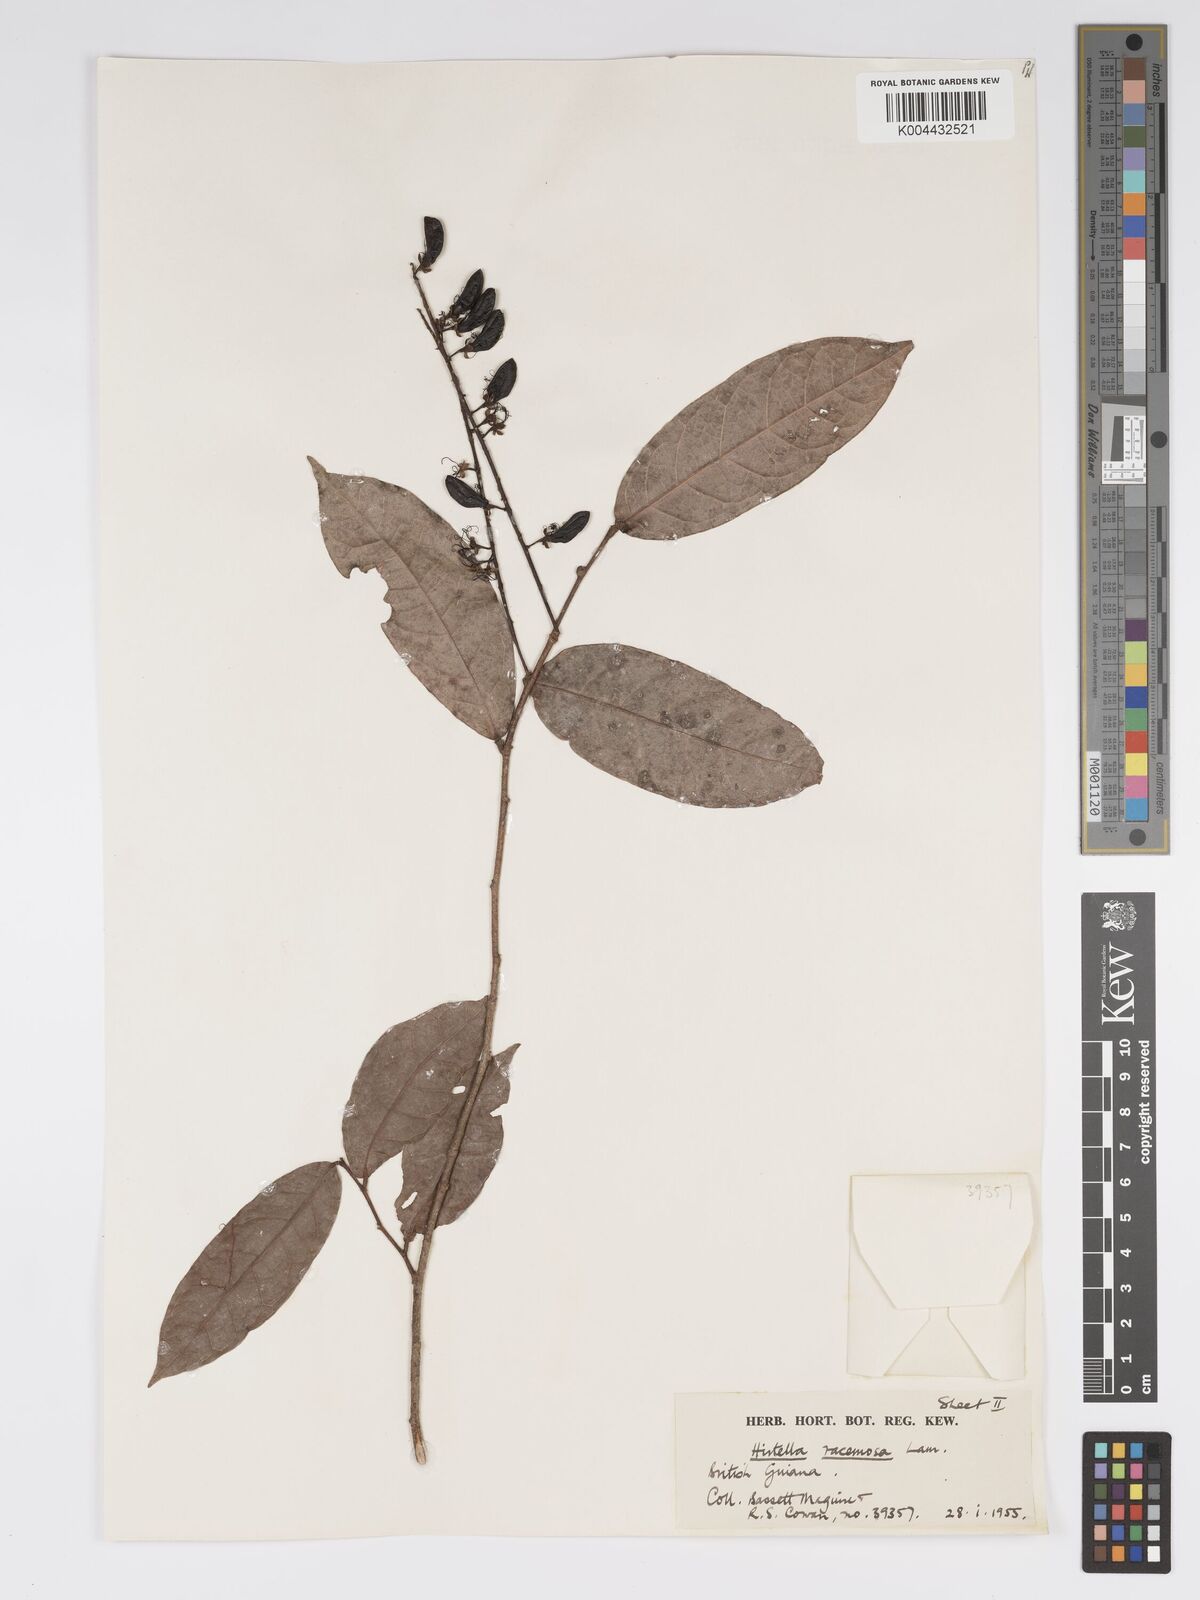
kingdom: Plantae
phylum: Tracheophyta
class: Magnoliopsida
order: Malpighiales
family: Chrysobalanaceae
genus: Hirtella
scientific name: Hirtella
